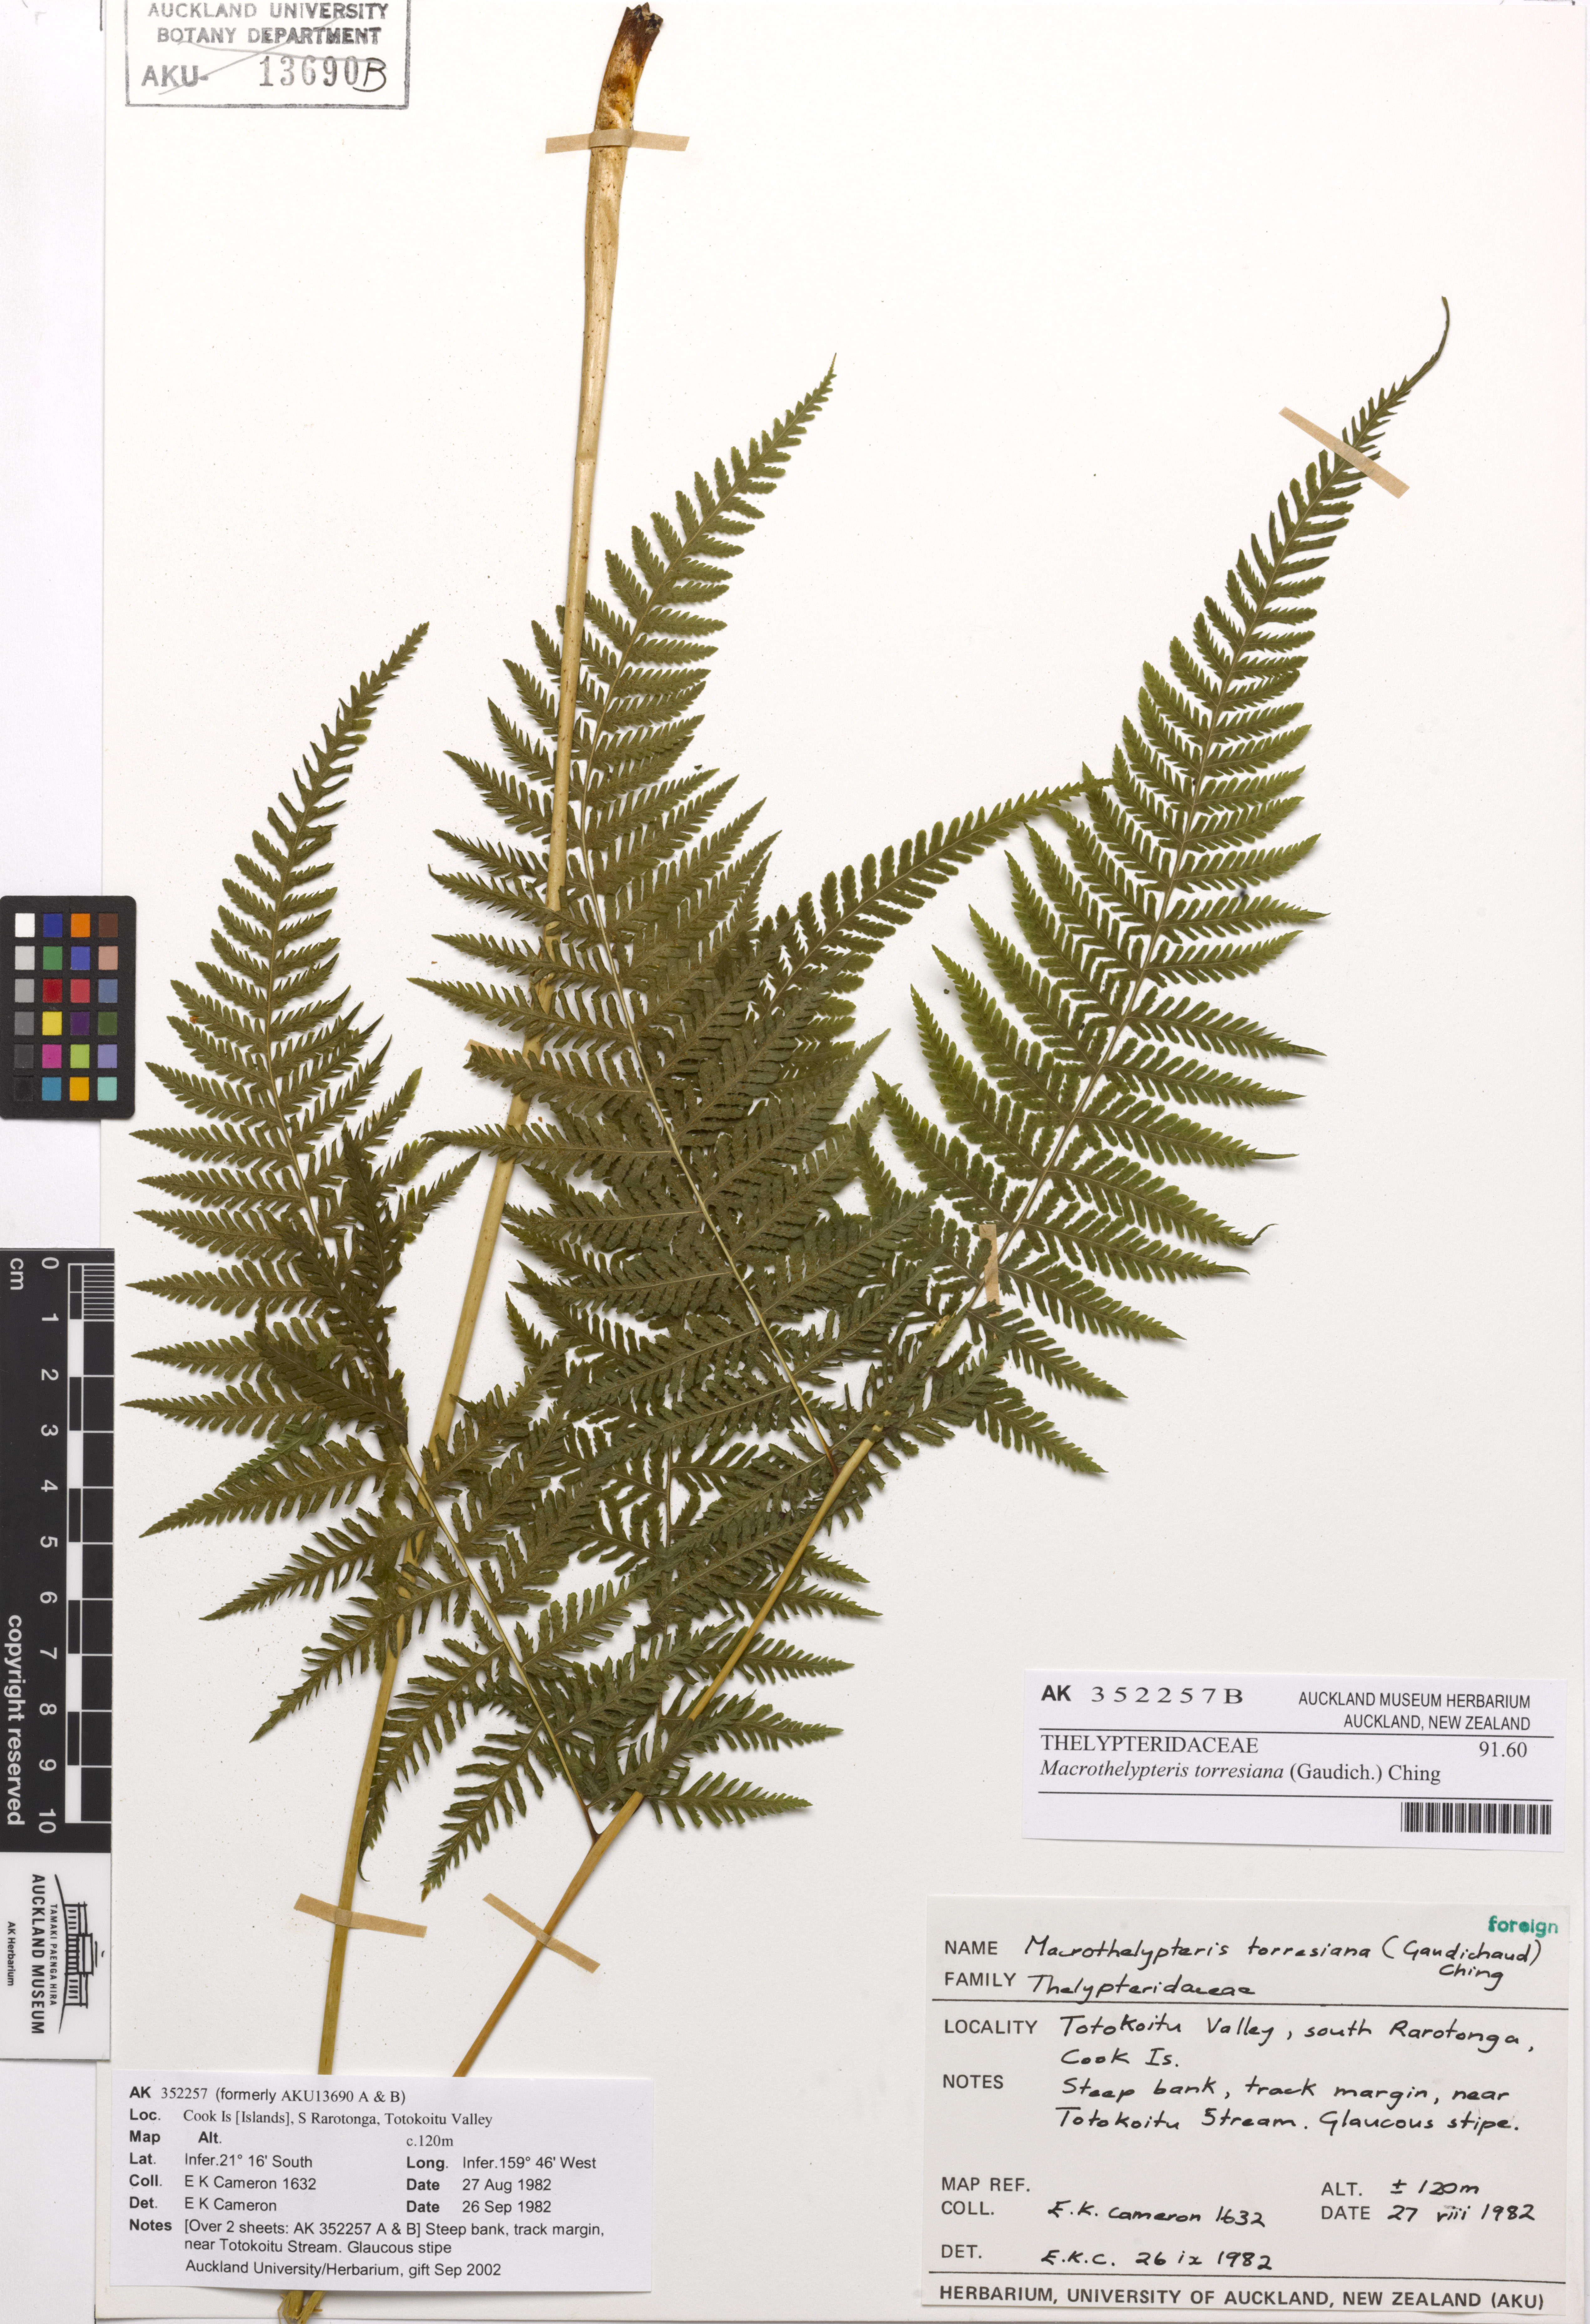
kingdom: Plantae
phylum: Tracheophyta
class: Polypodiopsida
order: Polypodiales
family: Thelypteridaceae
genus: Macrothelypteris
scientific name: Macrothelypteris torresiana
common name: Swordfern
